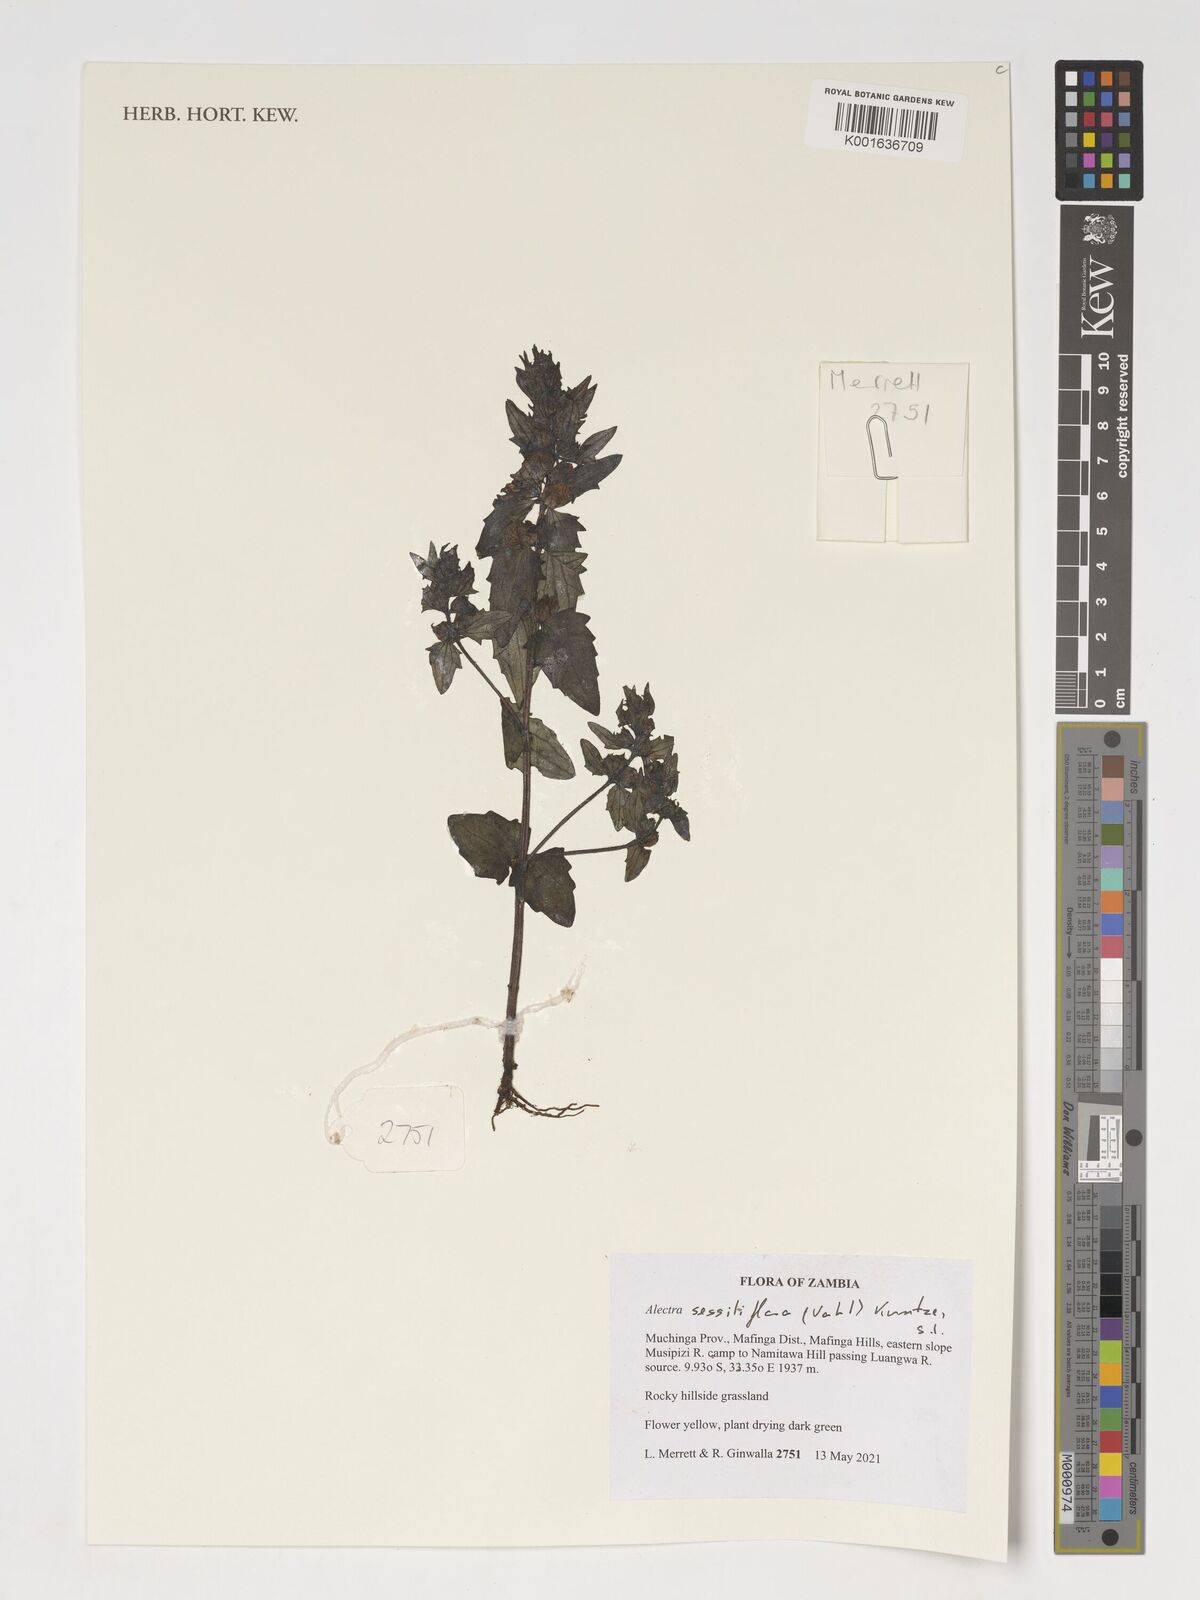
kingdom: Plantae
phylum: Tracheophyta
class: Magnoliopsida
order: Lamiales
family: Orobanchaceae
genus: Alectra
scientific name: Alectra sessiliflora
